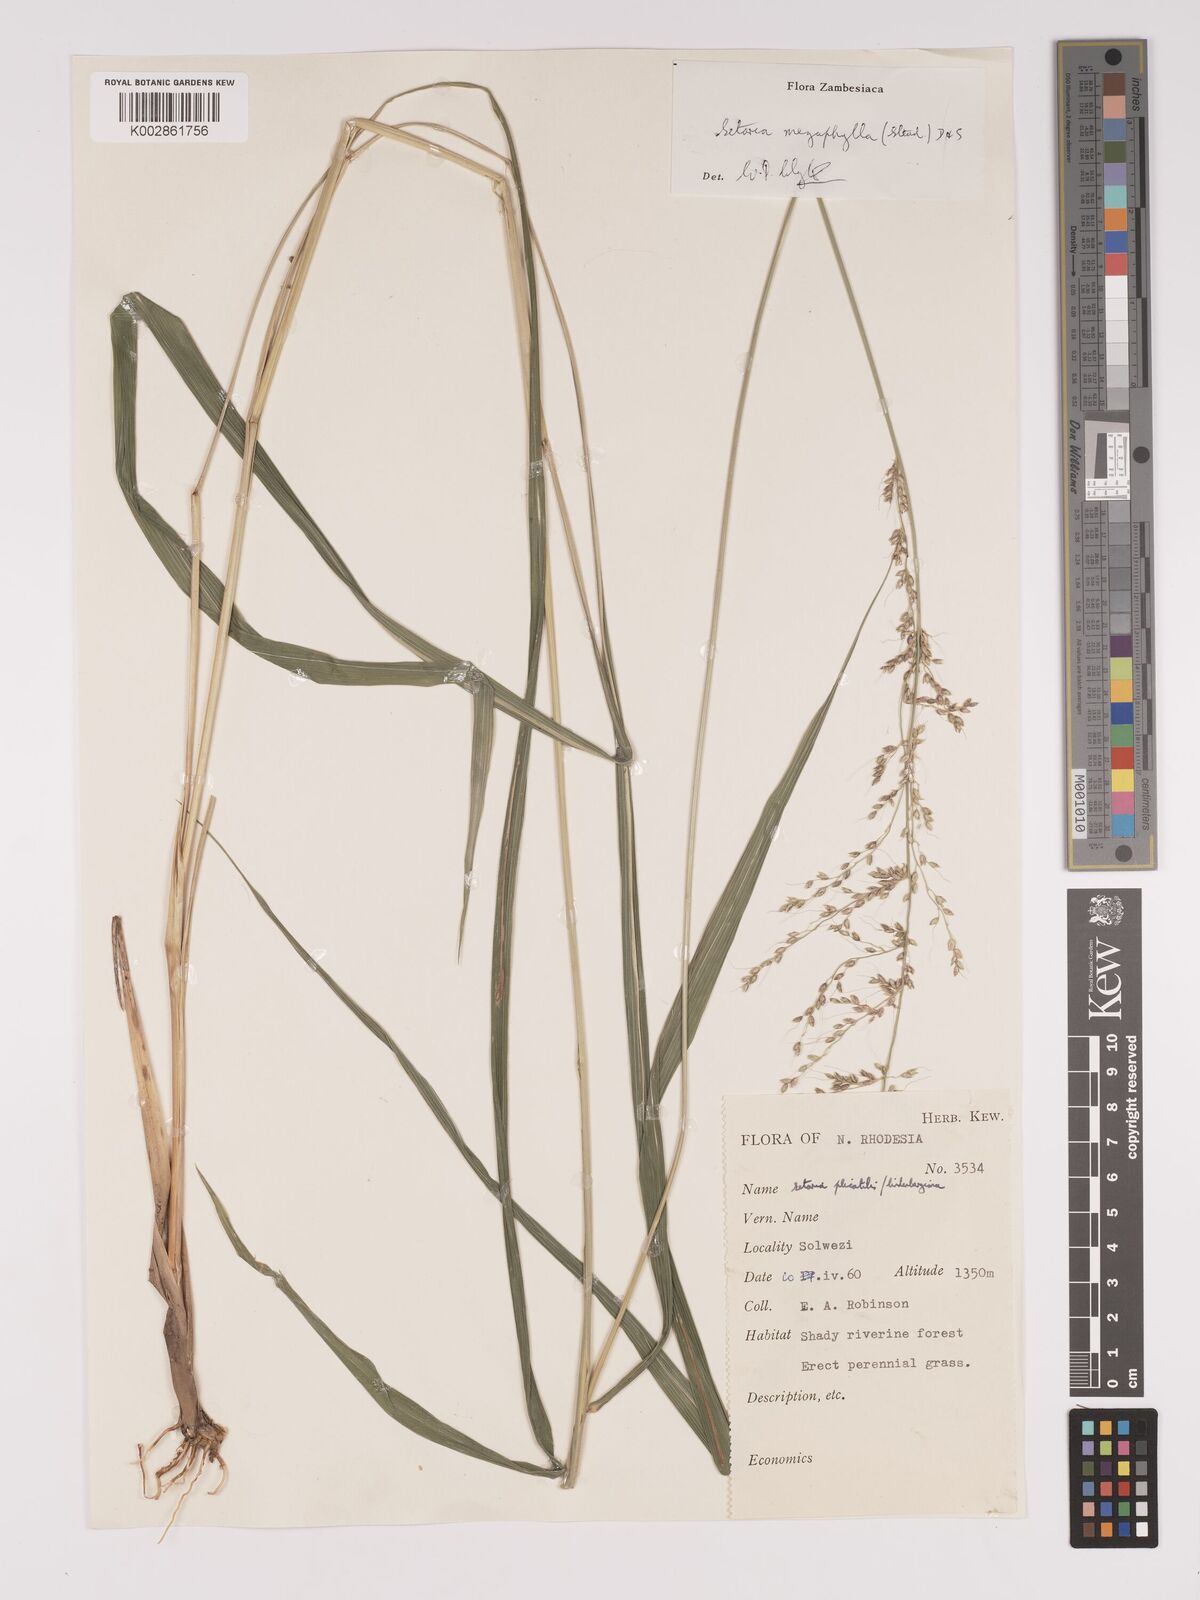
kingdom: Plantae
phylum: Tracheophyta
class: Liliopsida
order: Poales
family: Poaceae
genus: Setaria
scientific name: Setaria megaphylla
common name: Bigleaf bristlegrass
